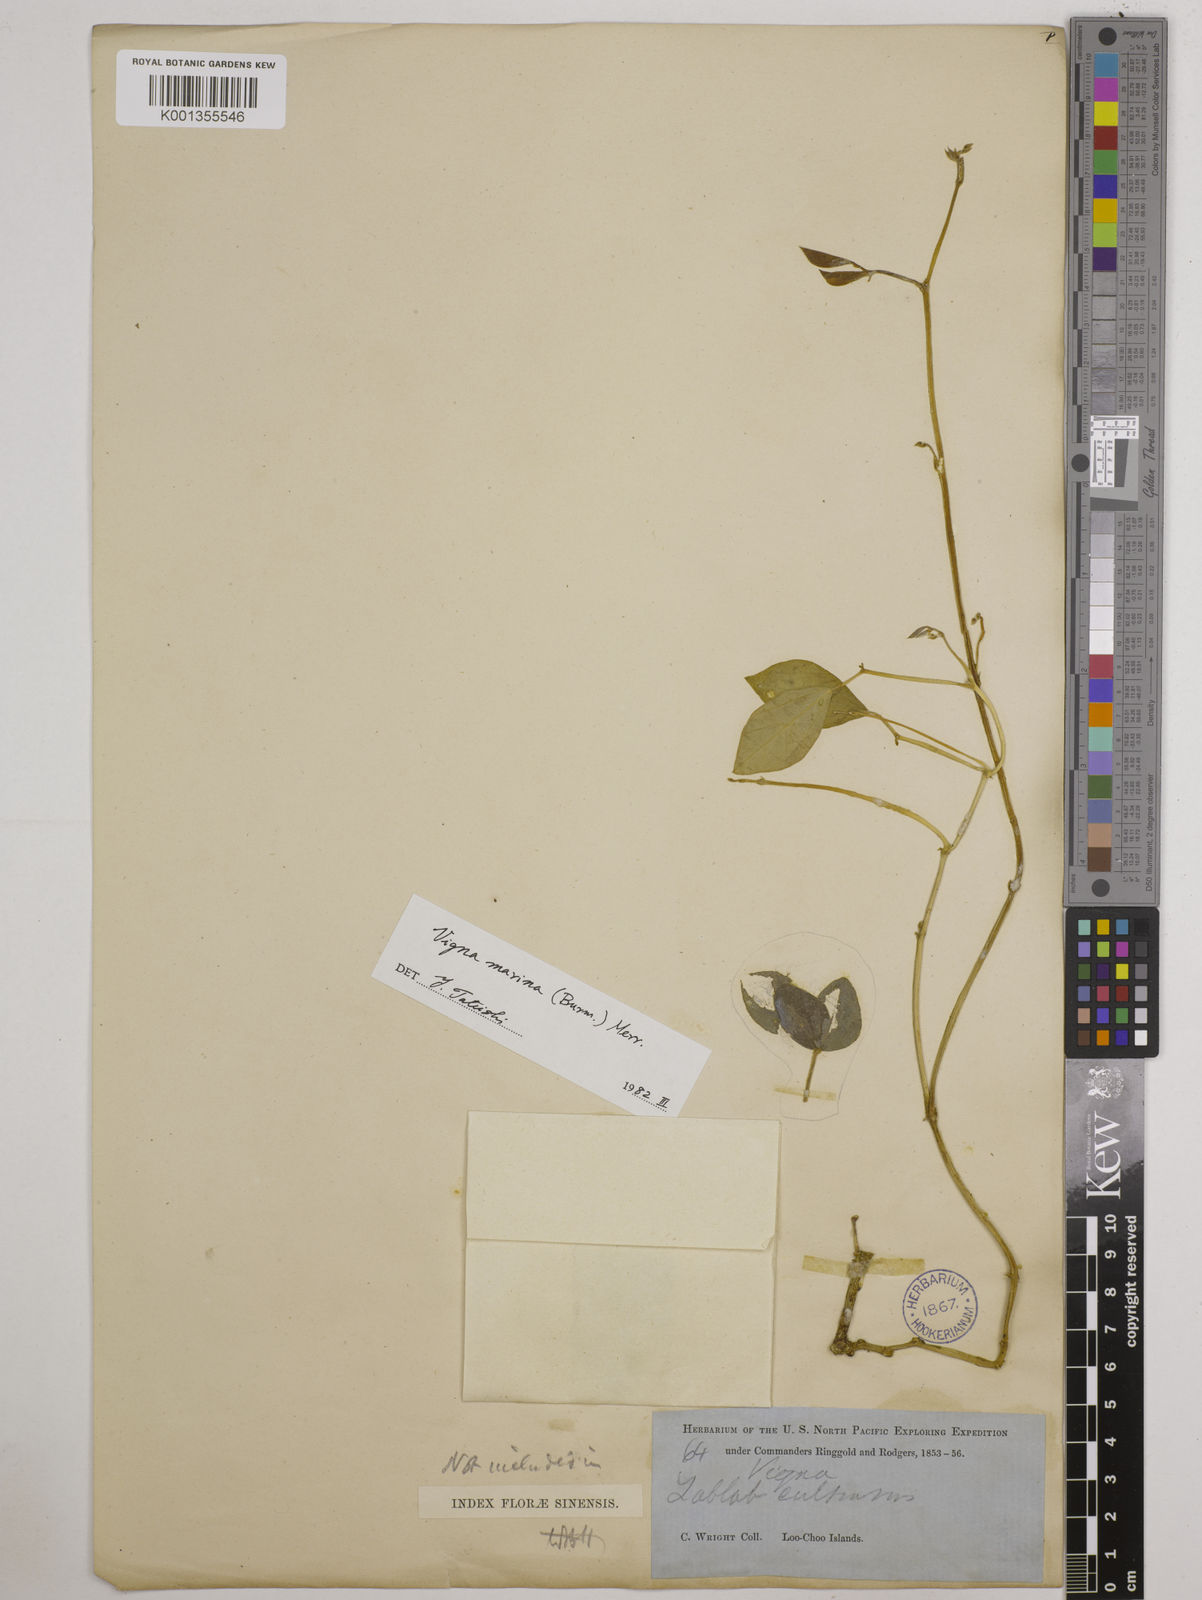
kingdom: Plantae
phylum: Tracheophyta
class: Magnoliopsida
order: Fabales
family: Fabaceae
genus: Vigna
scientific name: Vigna marina
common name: Dune-bean
